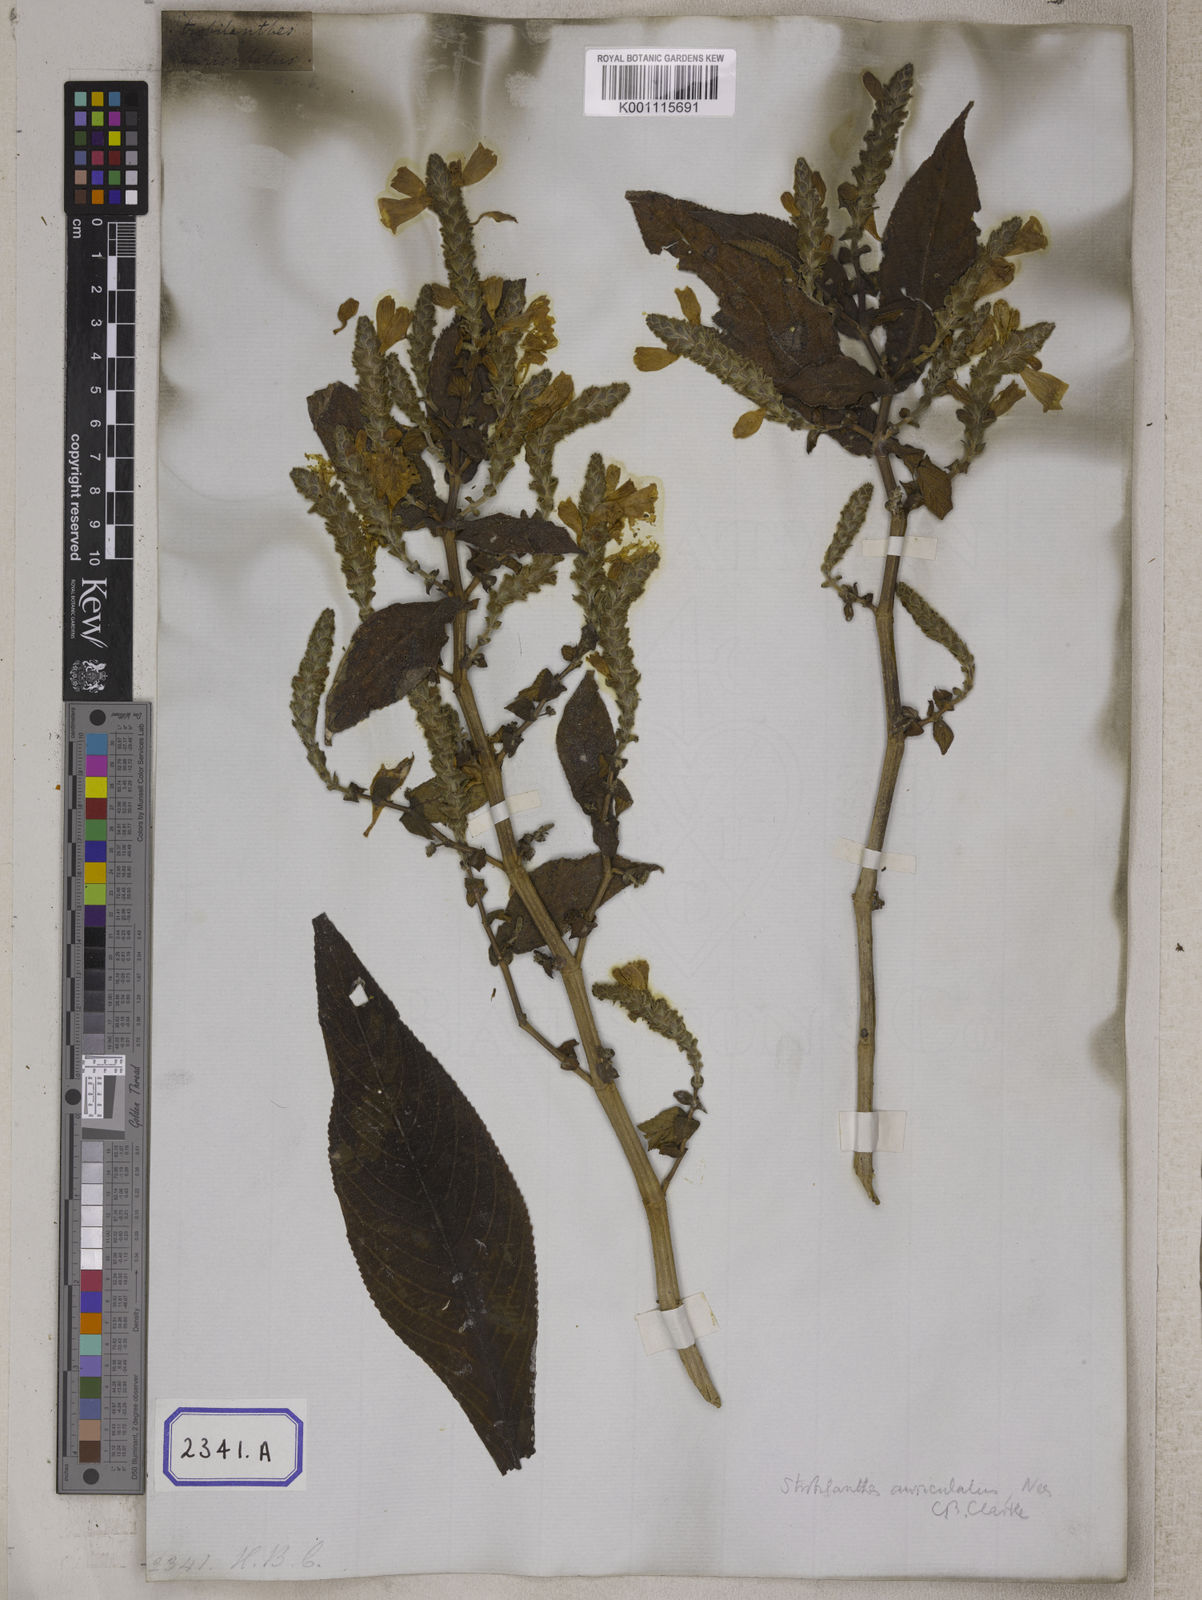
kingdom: Plantae
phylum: Tracheophyta
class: Magnoliopsida
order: Lamiales
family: Acanthaceae
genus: Mackaya
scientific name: Mackaya neesiana
